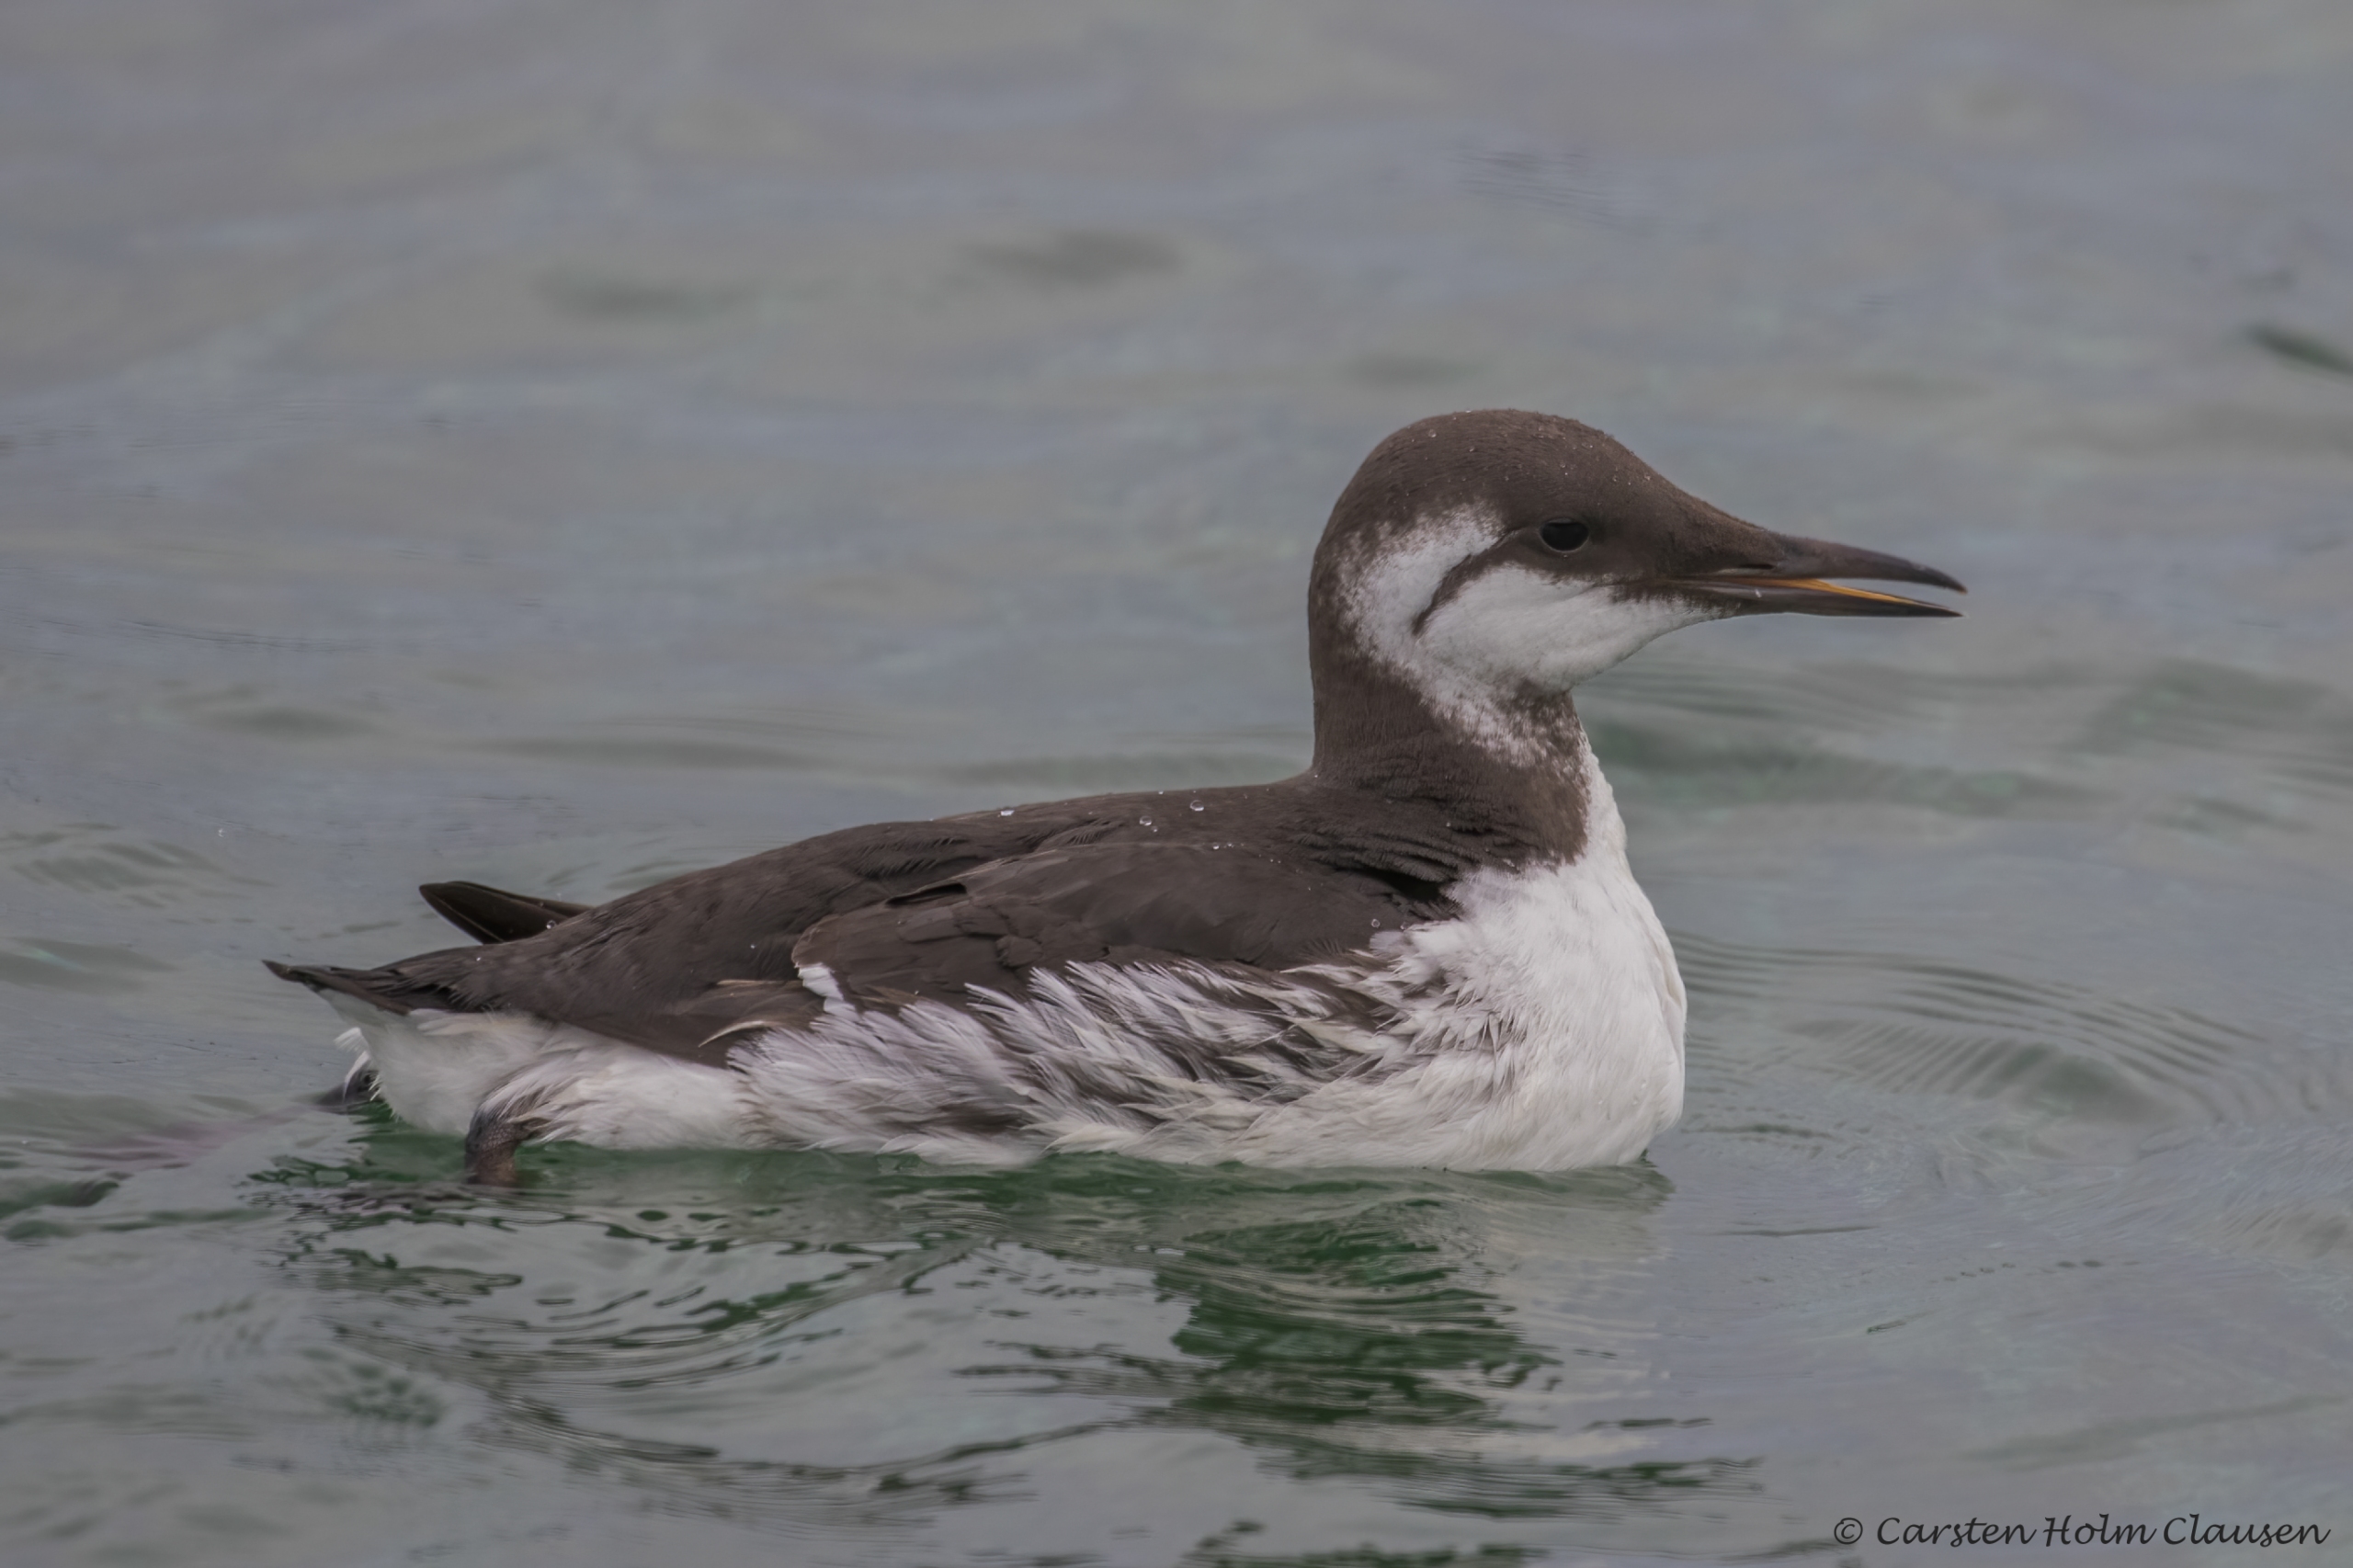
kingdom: Animalia
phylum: Chordata
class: Aves
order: Charadriiformes
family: Alcidae
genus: Uria
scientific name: Uria aalge
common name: Lomvie
